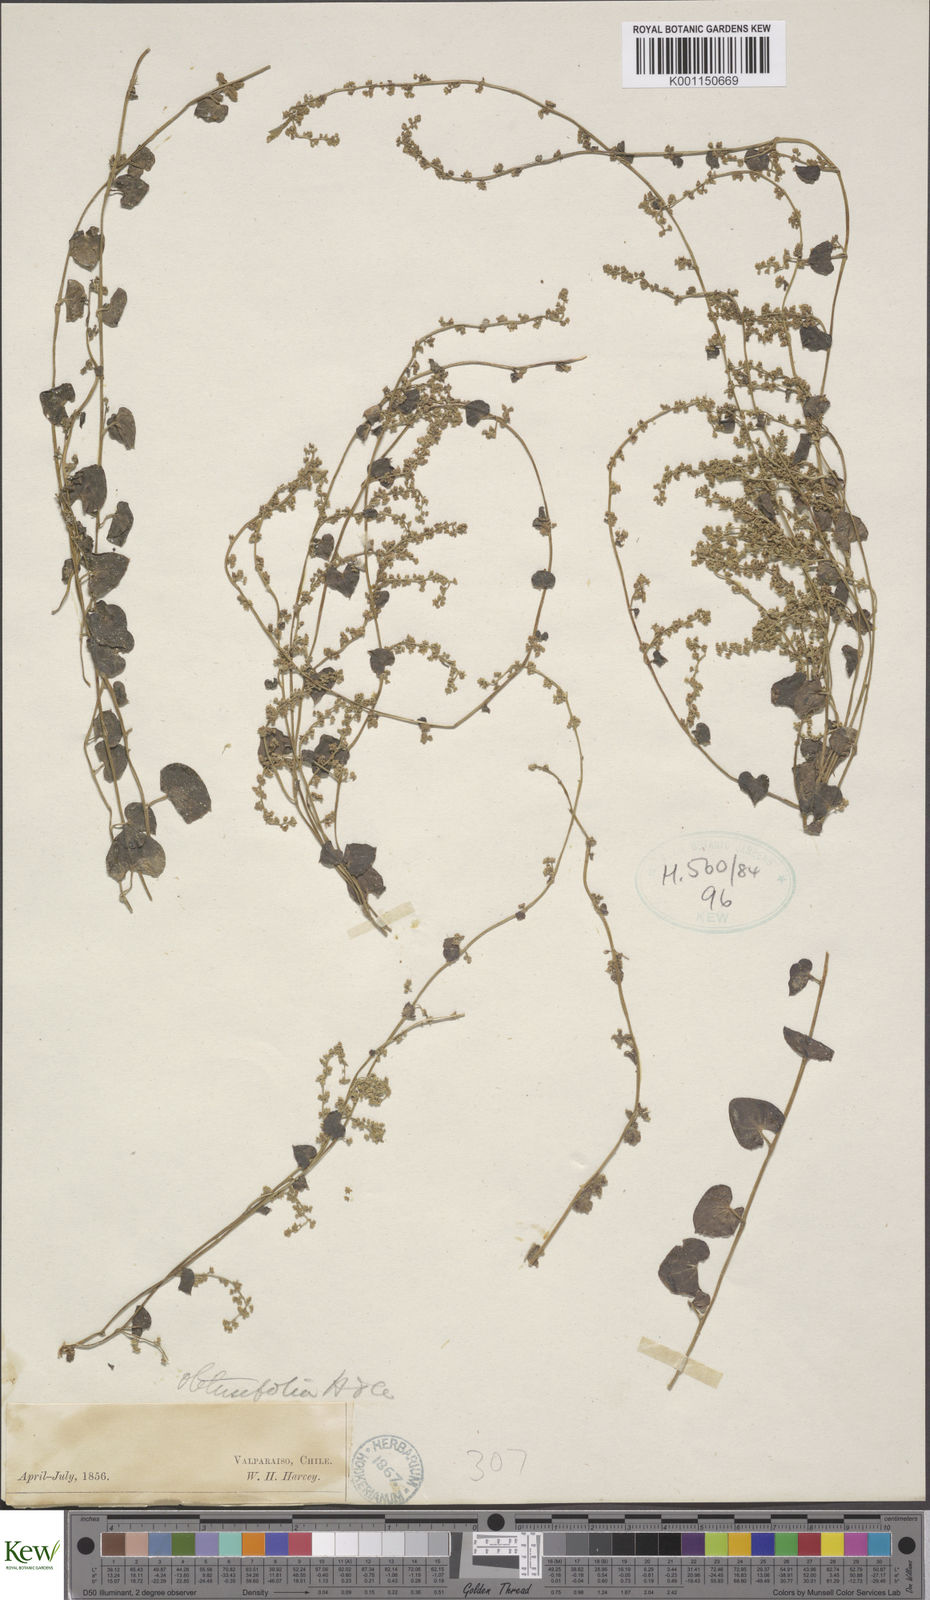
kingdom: Plantae
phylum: Tracheophyta
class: Liliopsida
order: Dioscoreales
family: Dioscoreaceae
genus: Dioscorea
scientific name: Dioscorea obtusifolia
